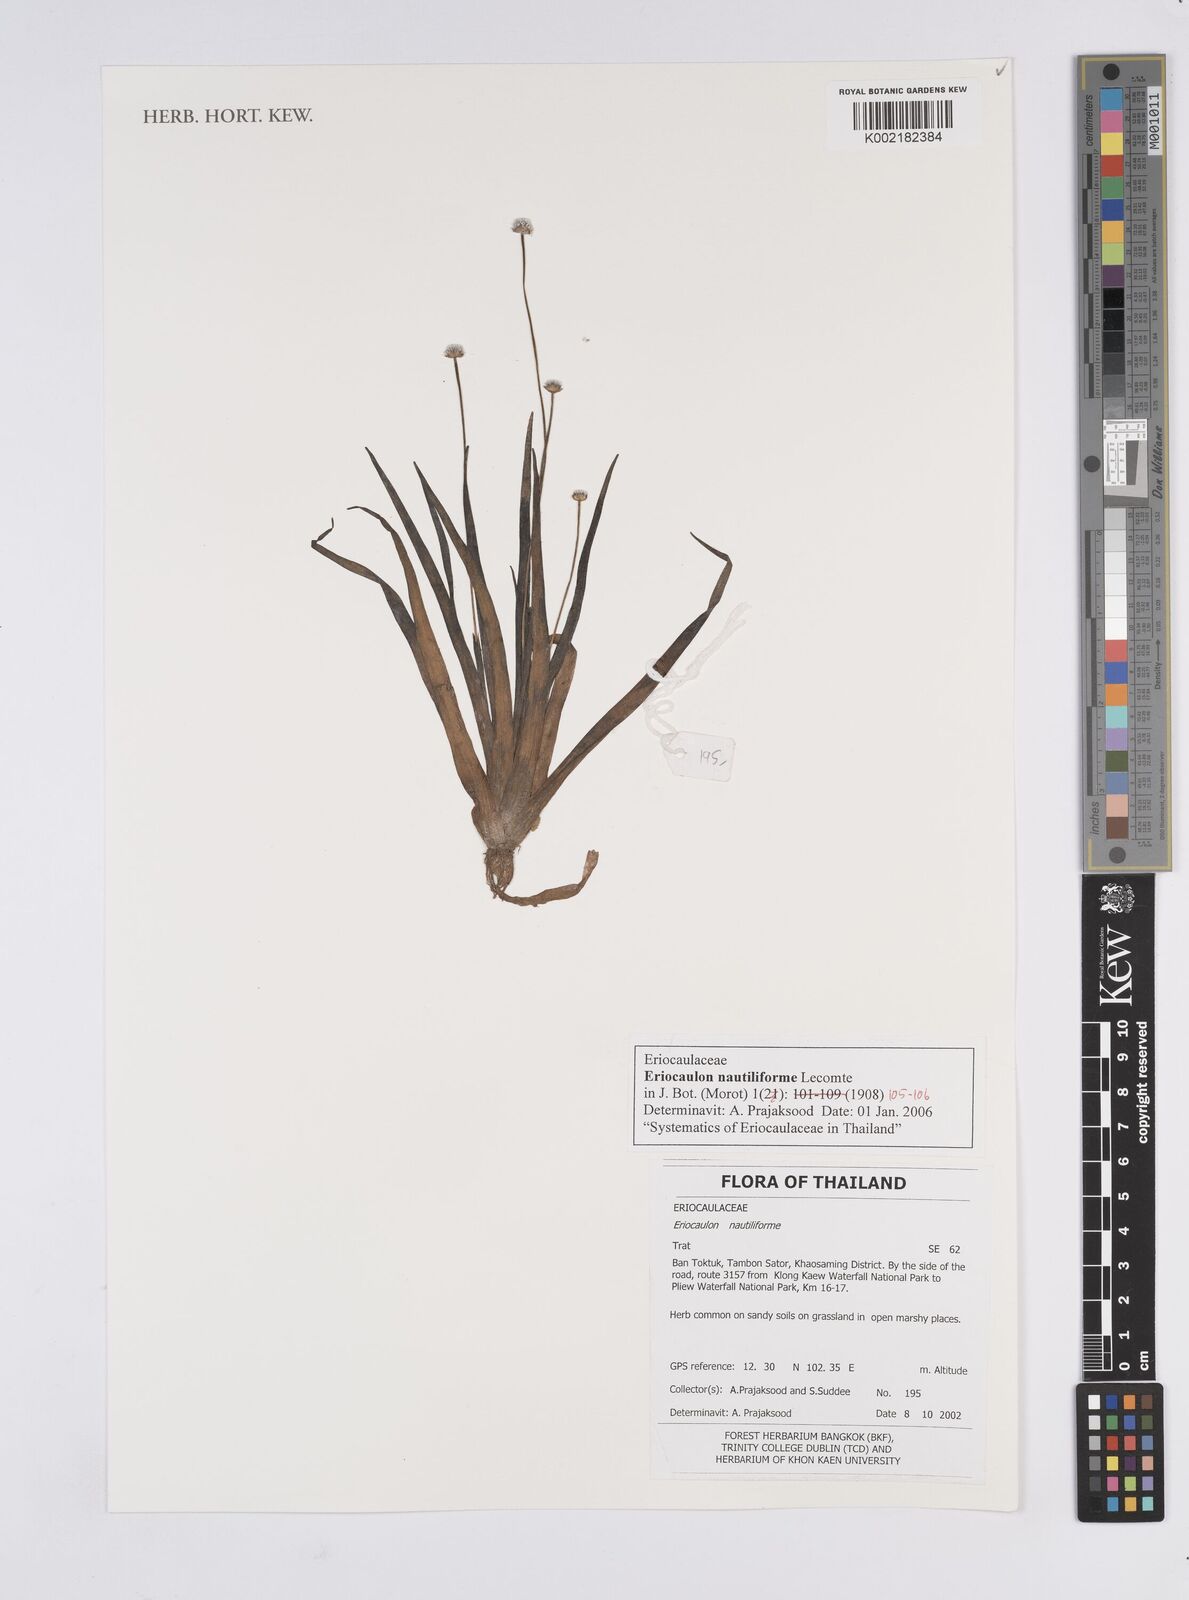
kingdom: Plantae
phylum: Tracheophyta
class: Liliopsida
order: Poales
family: Eriocaulaceae
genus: Eriocaulon
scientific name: Eriocaulon nautiliforme
